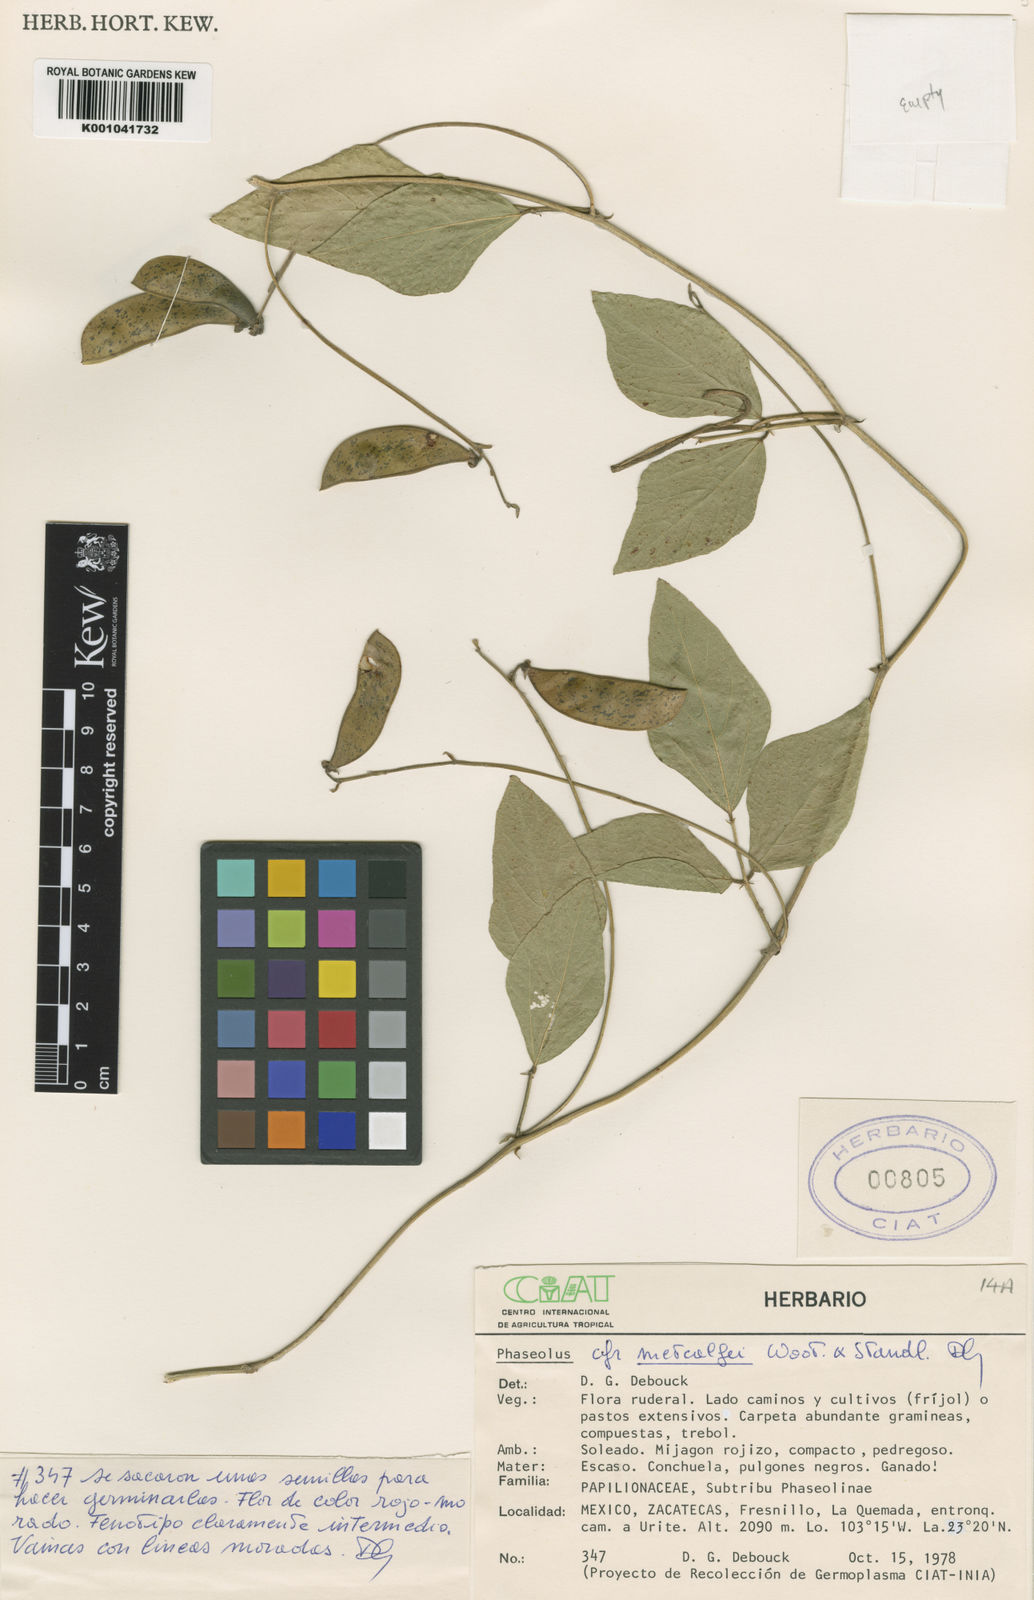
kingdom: Plantae
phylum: Tracheophyta
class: Magnoliopsida
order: Fabales
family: Fabaceae
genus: Phaseolus
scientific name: Phaseolus
